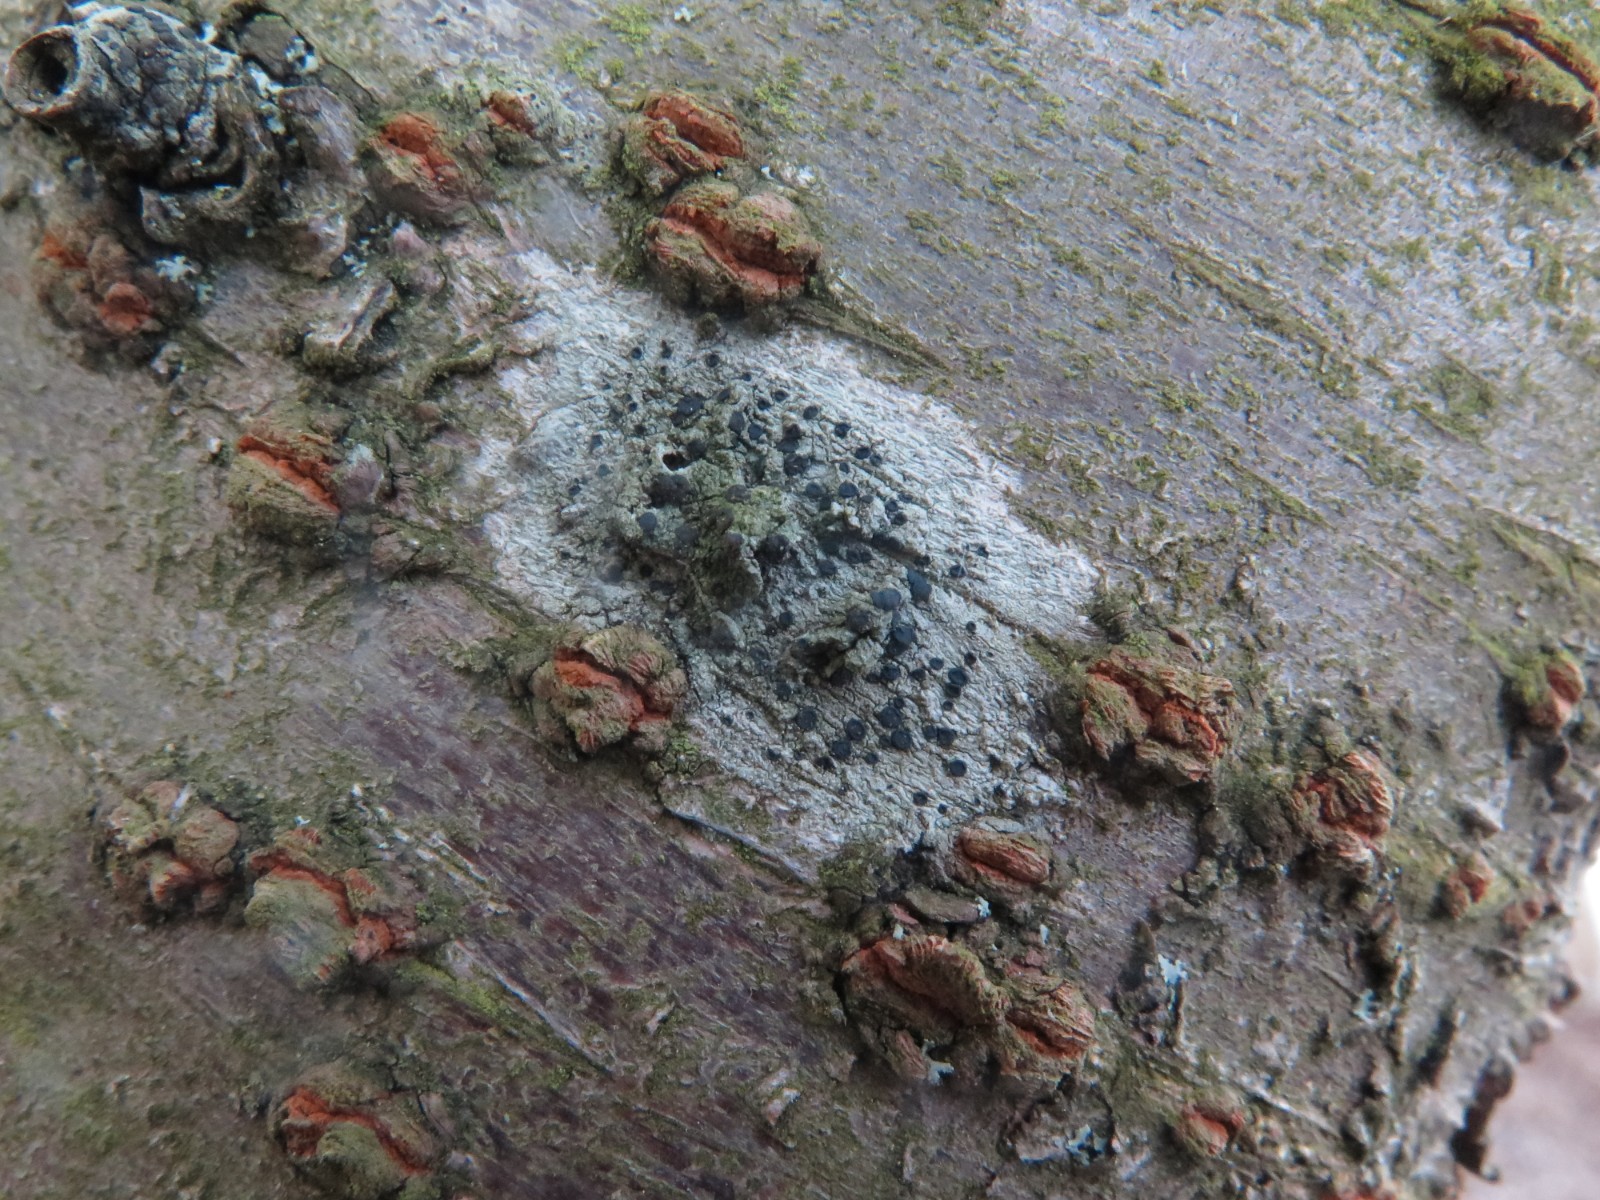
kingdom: Fungi
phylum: Ascomycota
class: Lecanoromycetes
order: Lecanorales
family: Lecanoraceae
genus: Lecidella
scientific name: Lecidella elaeochroma
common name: grågrøn skivelav
